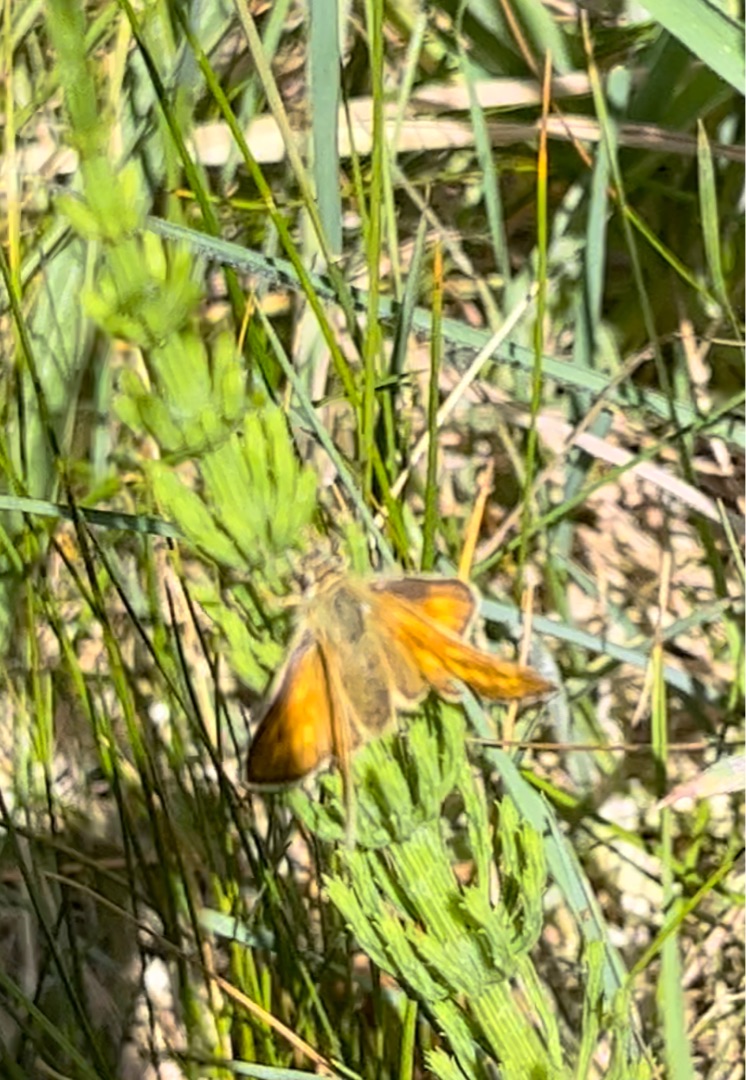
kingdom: Animalia
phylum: Arthropoda
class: Insecta
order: Lepidoptera
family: Hesperiidae
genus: Ochlodes
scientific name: Ochlodes venata
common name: Stor bredpande
